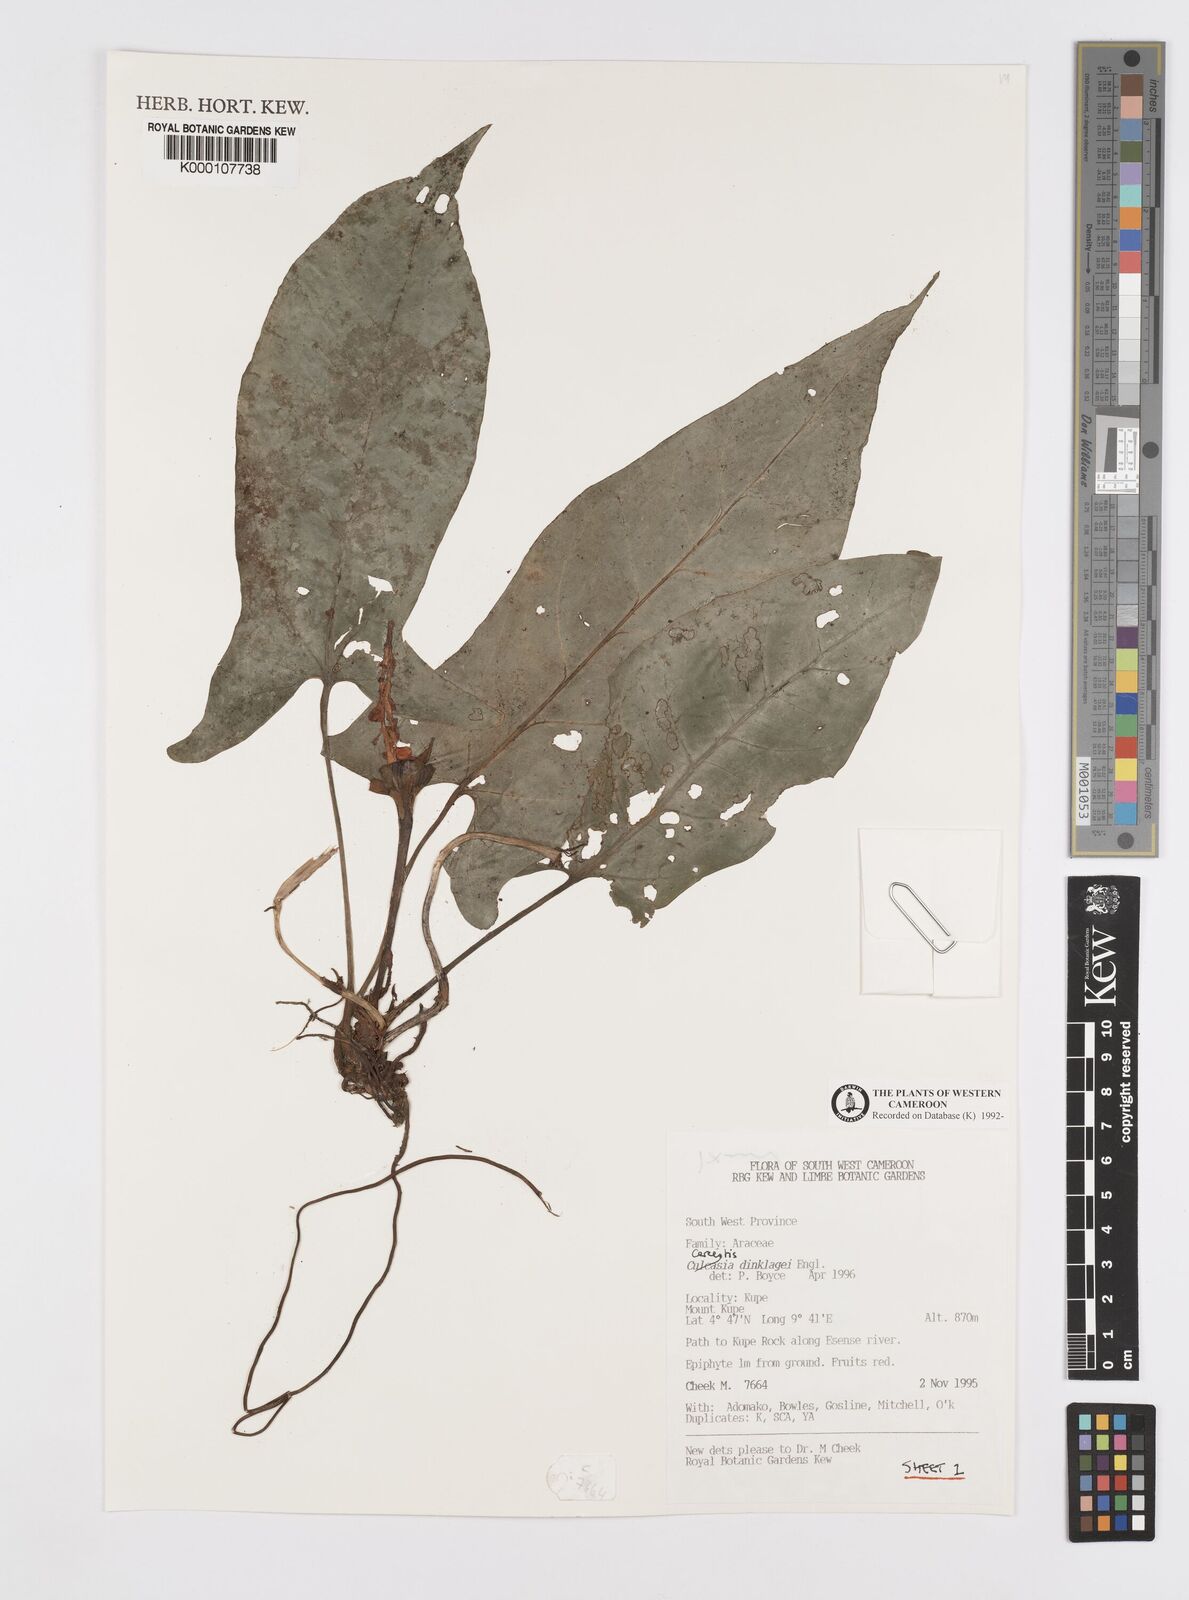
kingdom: Plantae
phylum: Tracheophyta
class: Liliopsida
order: Alismatales
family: Araceae
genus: Cercestis
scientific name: Cercestis dinklagei
